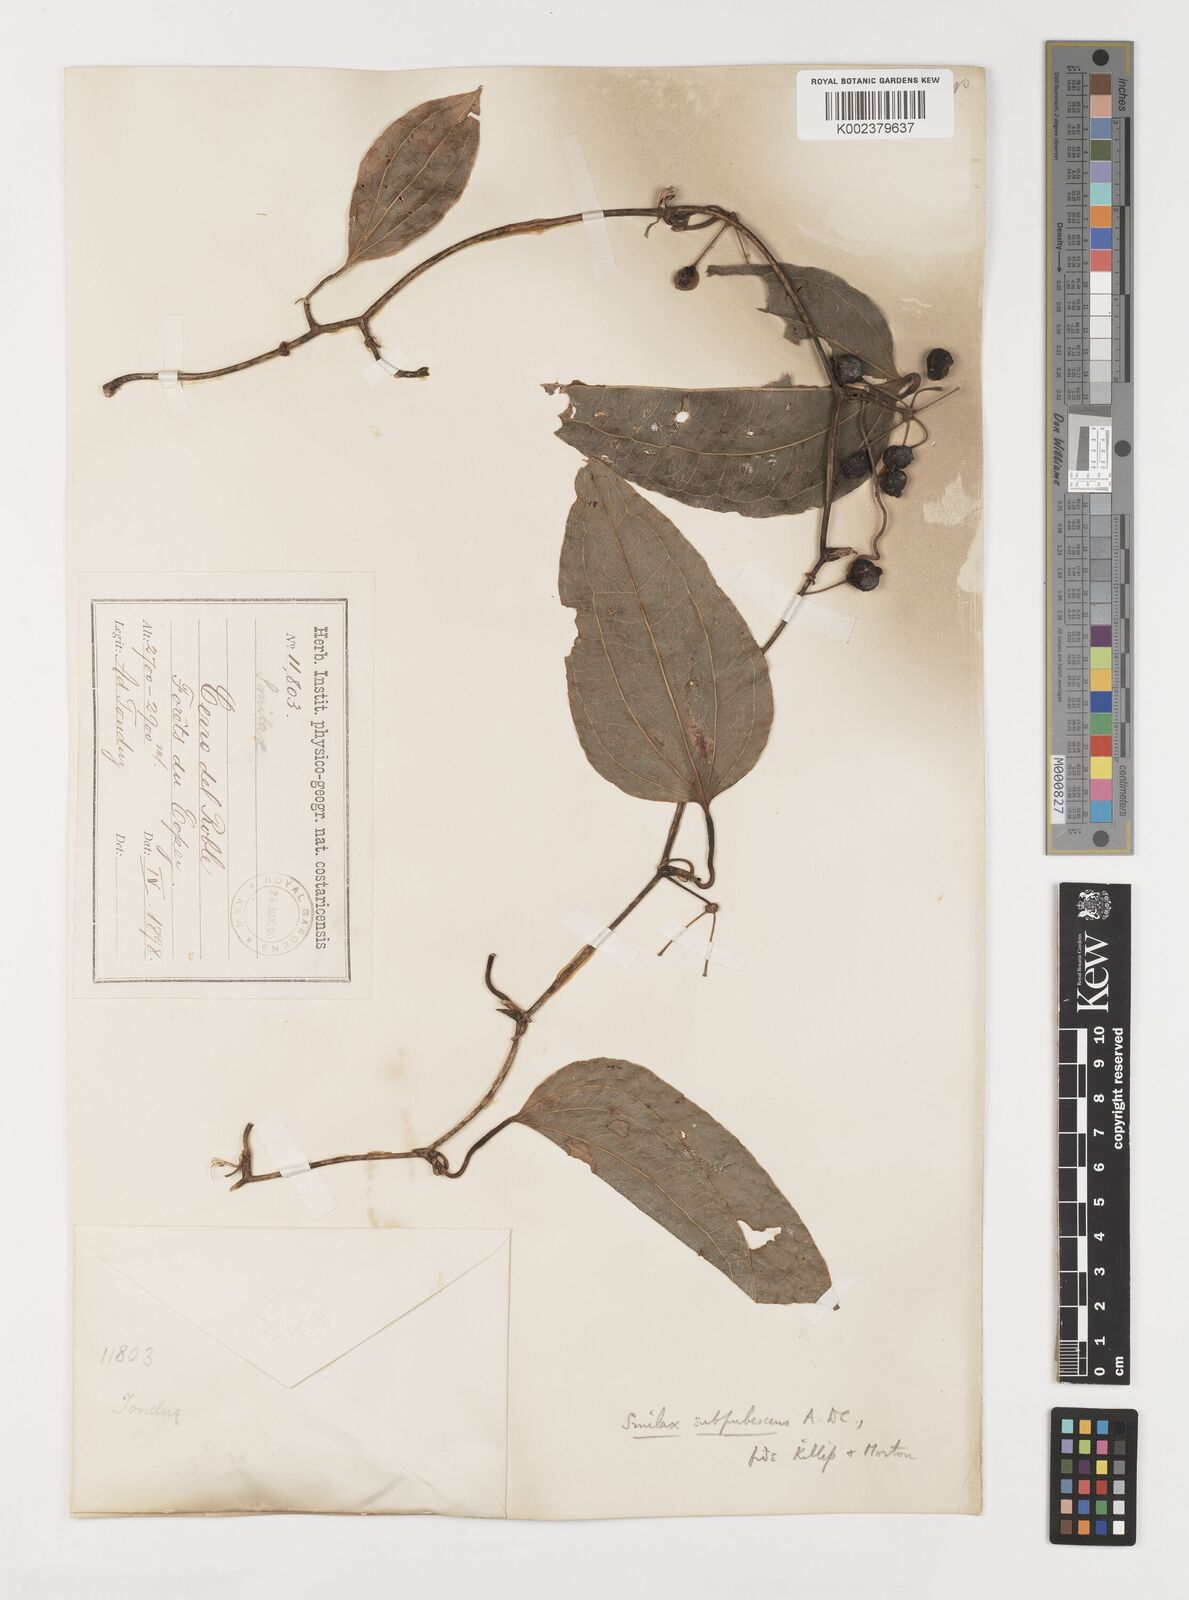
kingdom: Plantae
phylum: Tracheophyta
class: Liliopsida
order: Liliales
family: Smilacaceae
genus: Smilax
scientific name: Smilax subpubescens
